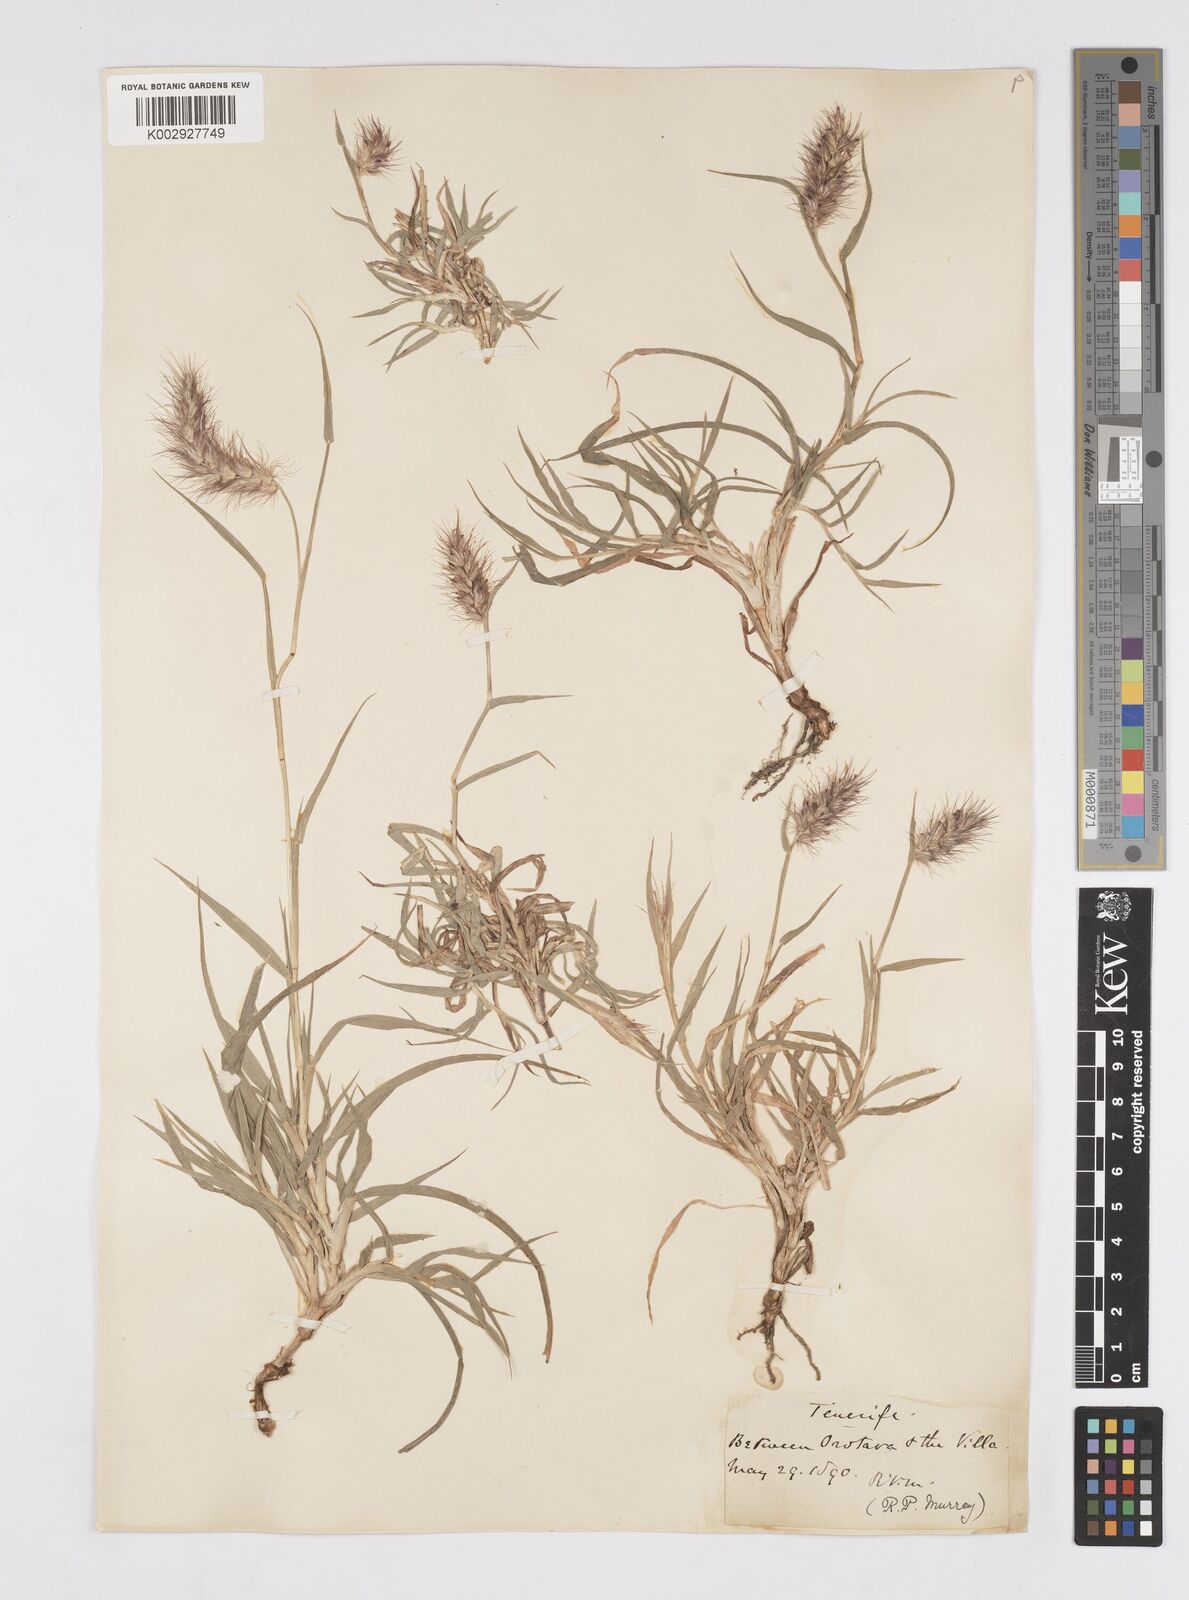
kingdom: Plantae
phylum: Tracheophyta
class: Liliopsida
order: Poales
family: Poaceae
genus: Cenchrus
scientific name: Cenchrus
